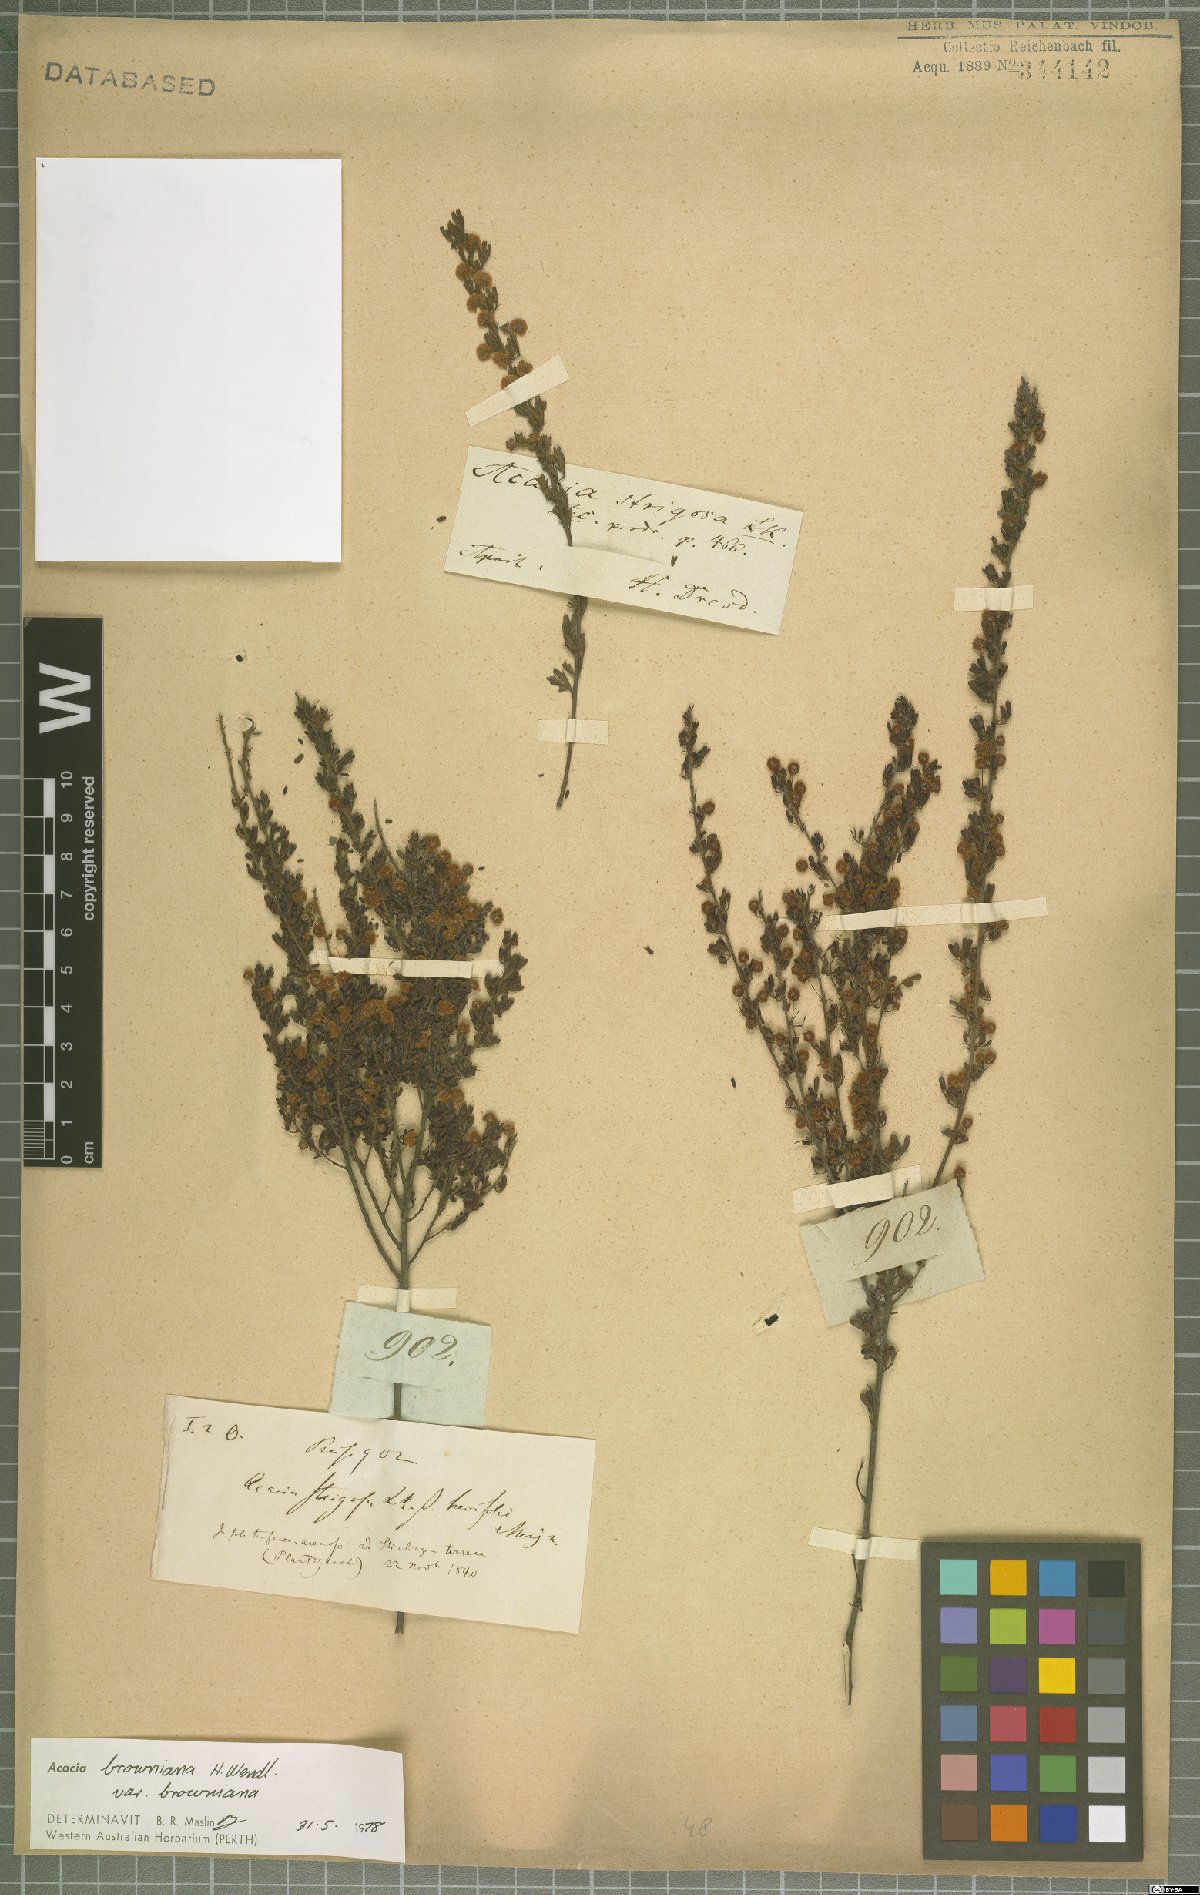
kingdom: Plantae
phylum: Tracheophyta
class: Magnoliopsida
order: Fabales
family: Fabaceae
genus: Acacia
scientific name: Acacia browniana
